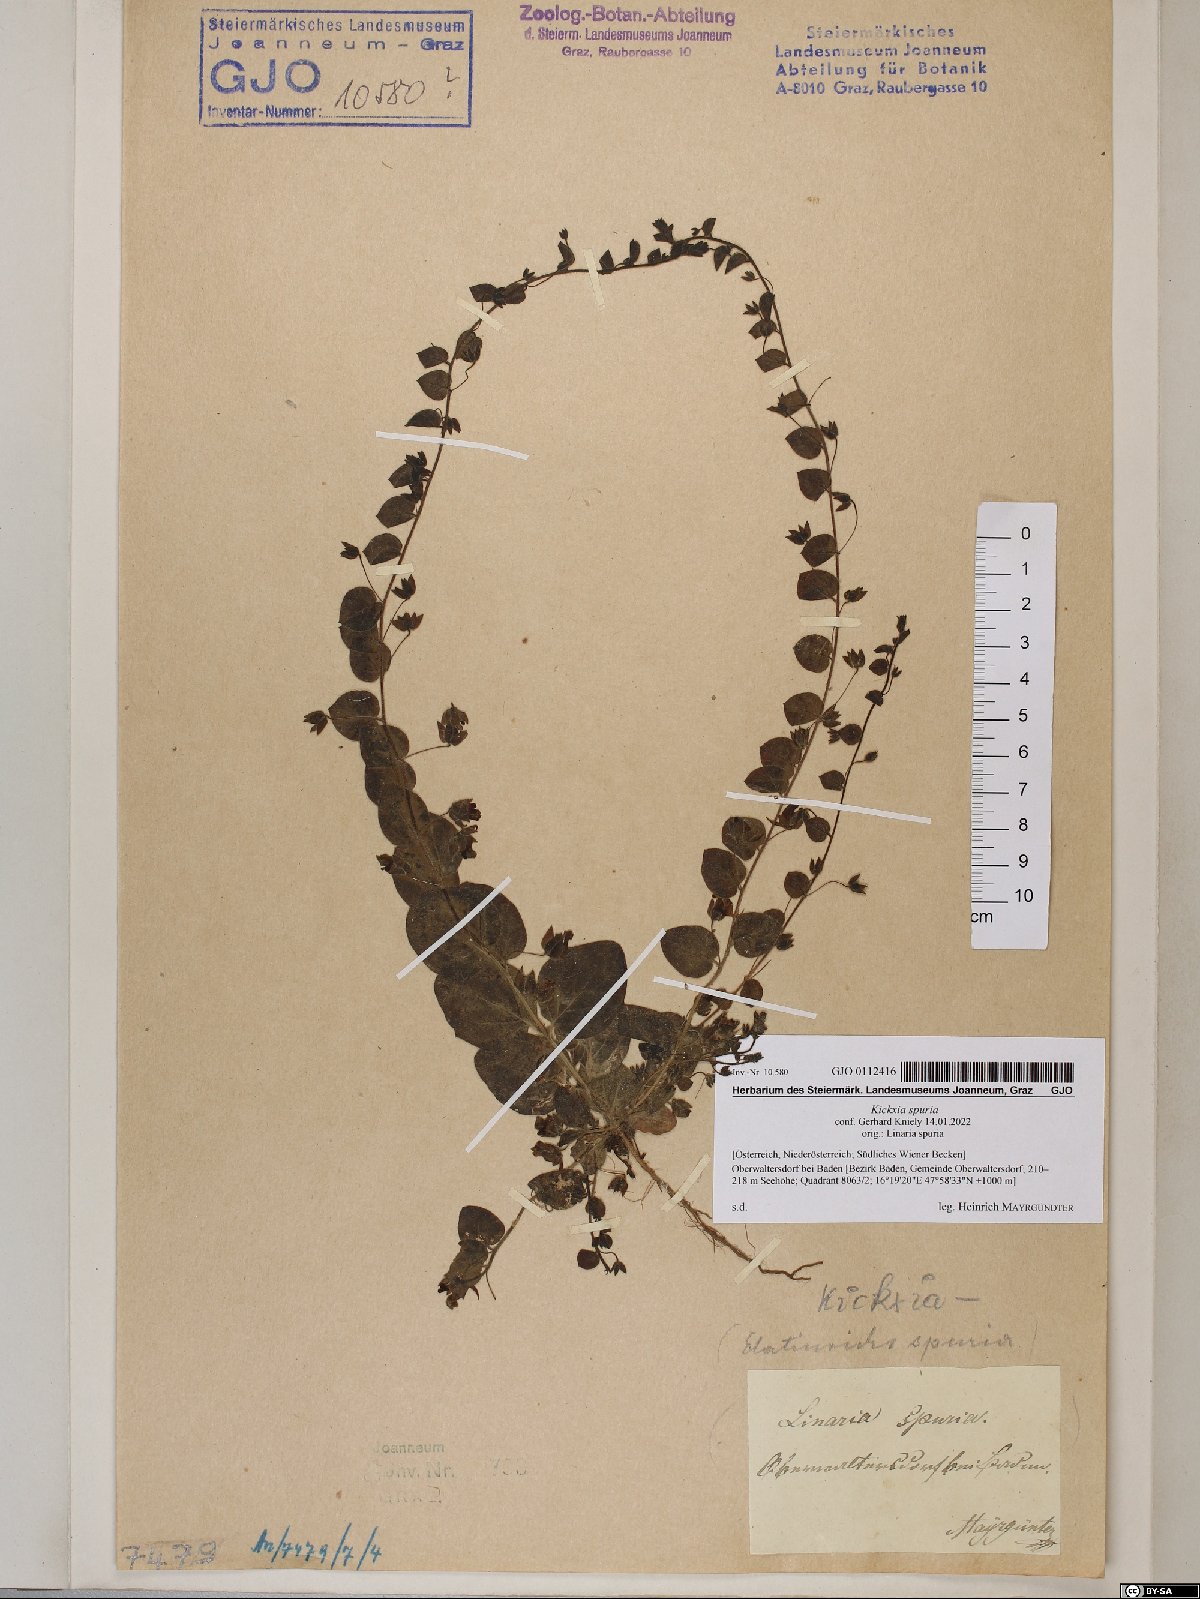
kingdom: Plantae
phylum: Tracheophyta
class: Magnoliopsida
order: Lamiales
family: Plantaginaceae
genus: Kickxia
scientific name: Kickxia spuria
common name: Round-leaved fluellen
